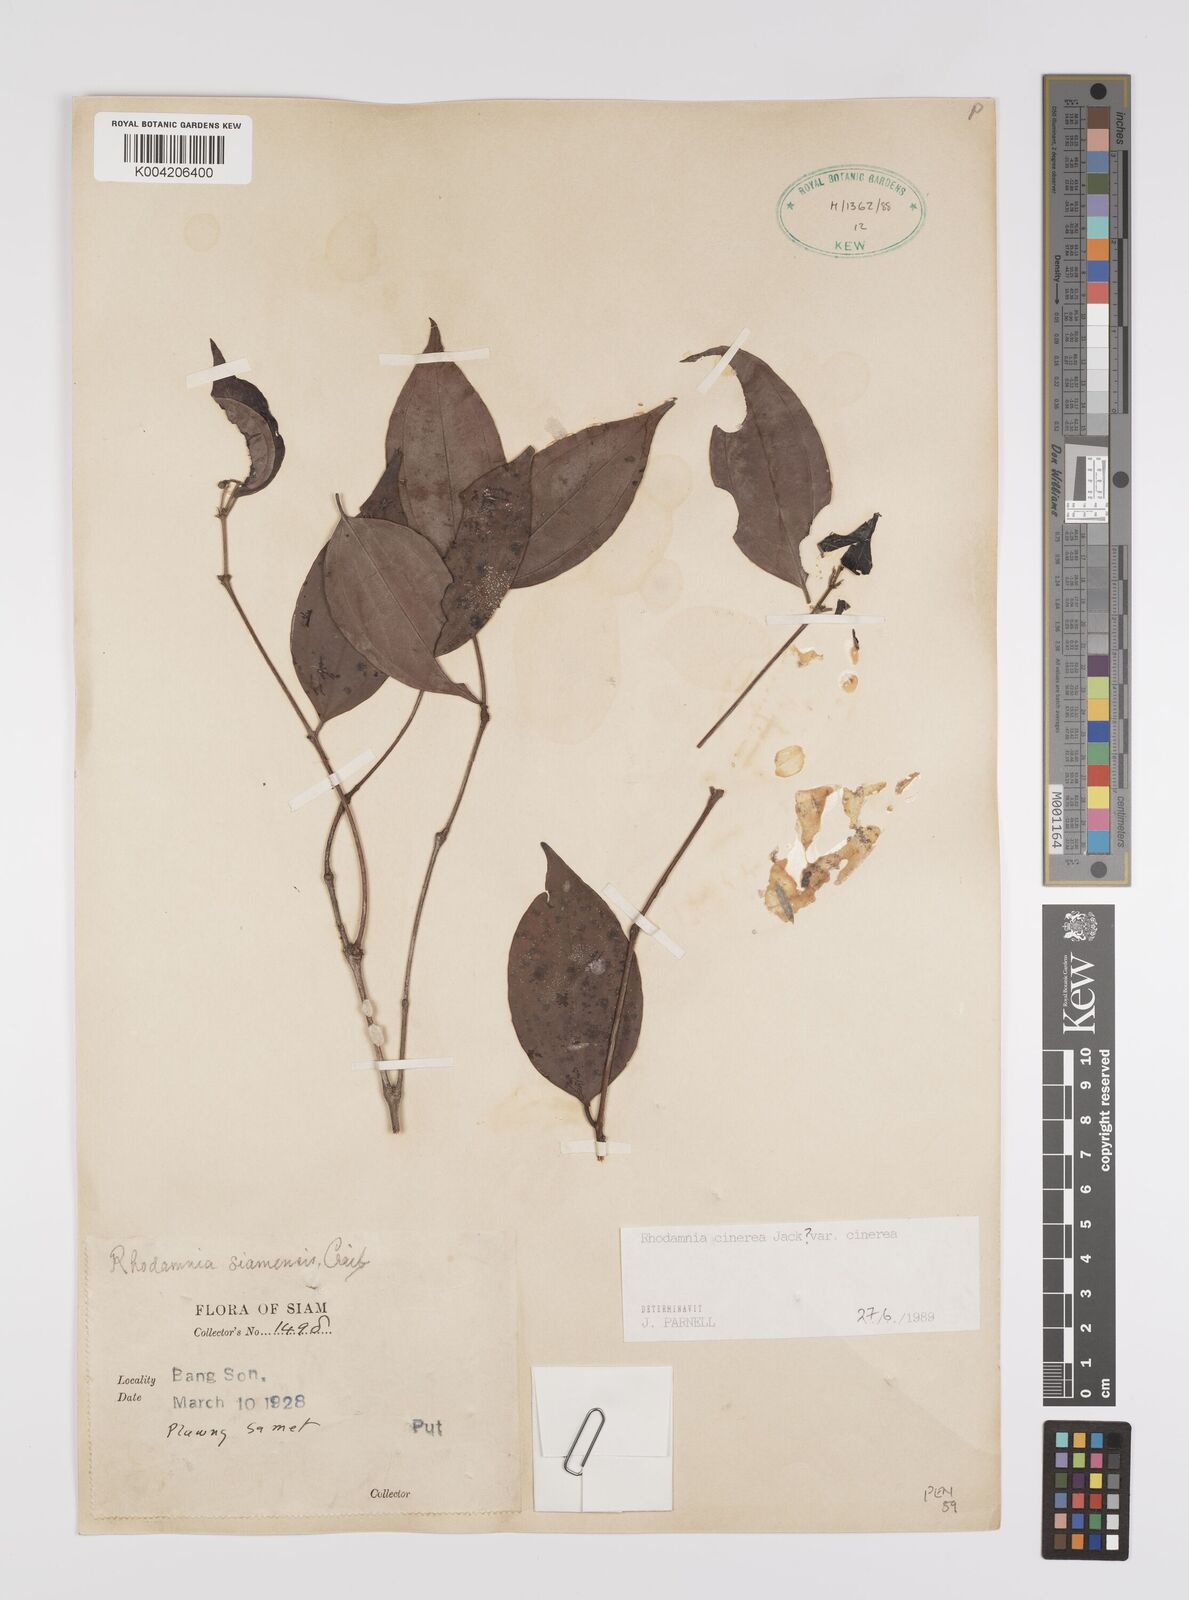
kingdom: Plantae
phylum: Tracheophyta
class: Magnoliopsida
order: Myrtales
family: Myrtaceae
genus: Rhodamnia
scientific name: Rhodamnia cinerea
